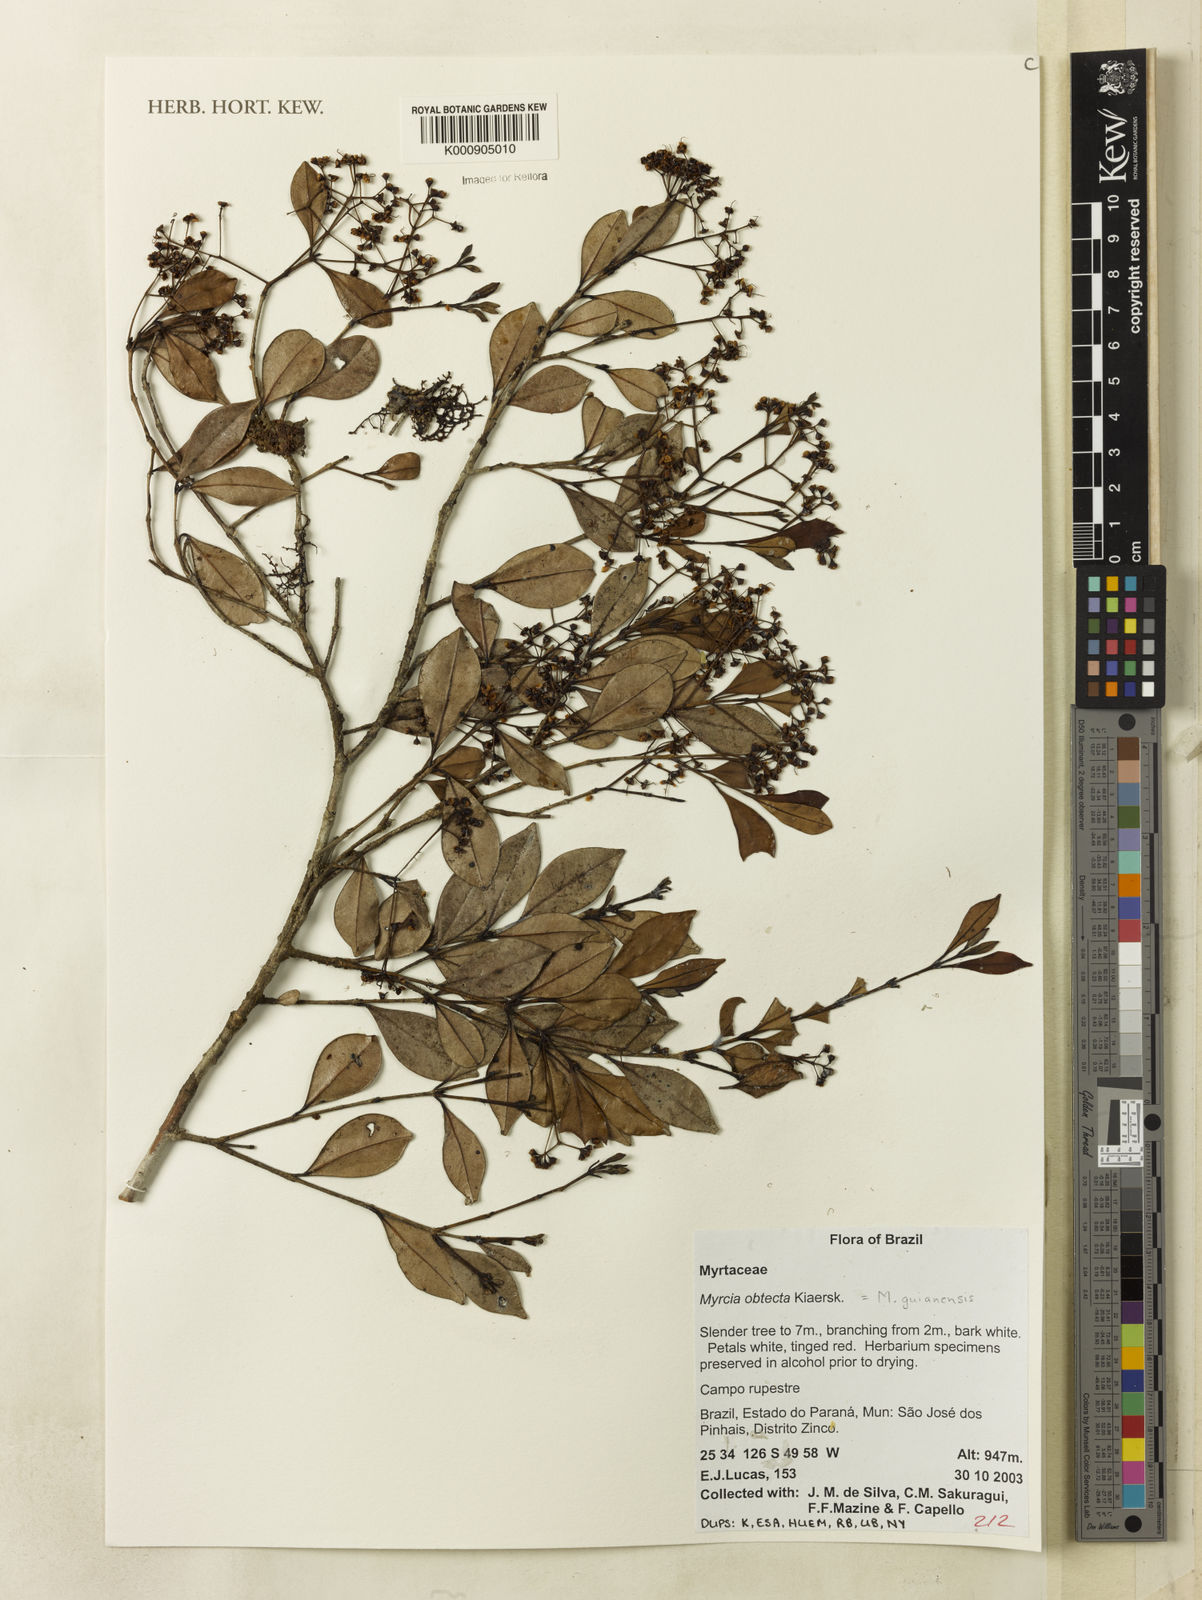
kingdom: Plantae
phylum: Tracheophyta
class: Magnoliopsida
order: Myrtales
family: Myrtaceae
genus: Myrcia
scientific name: Myrcia guianensis
